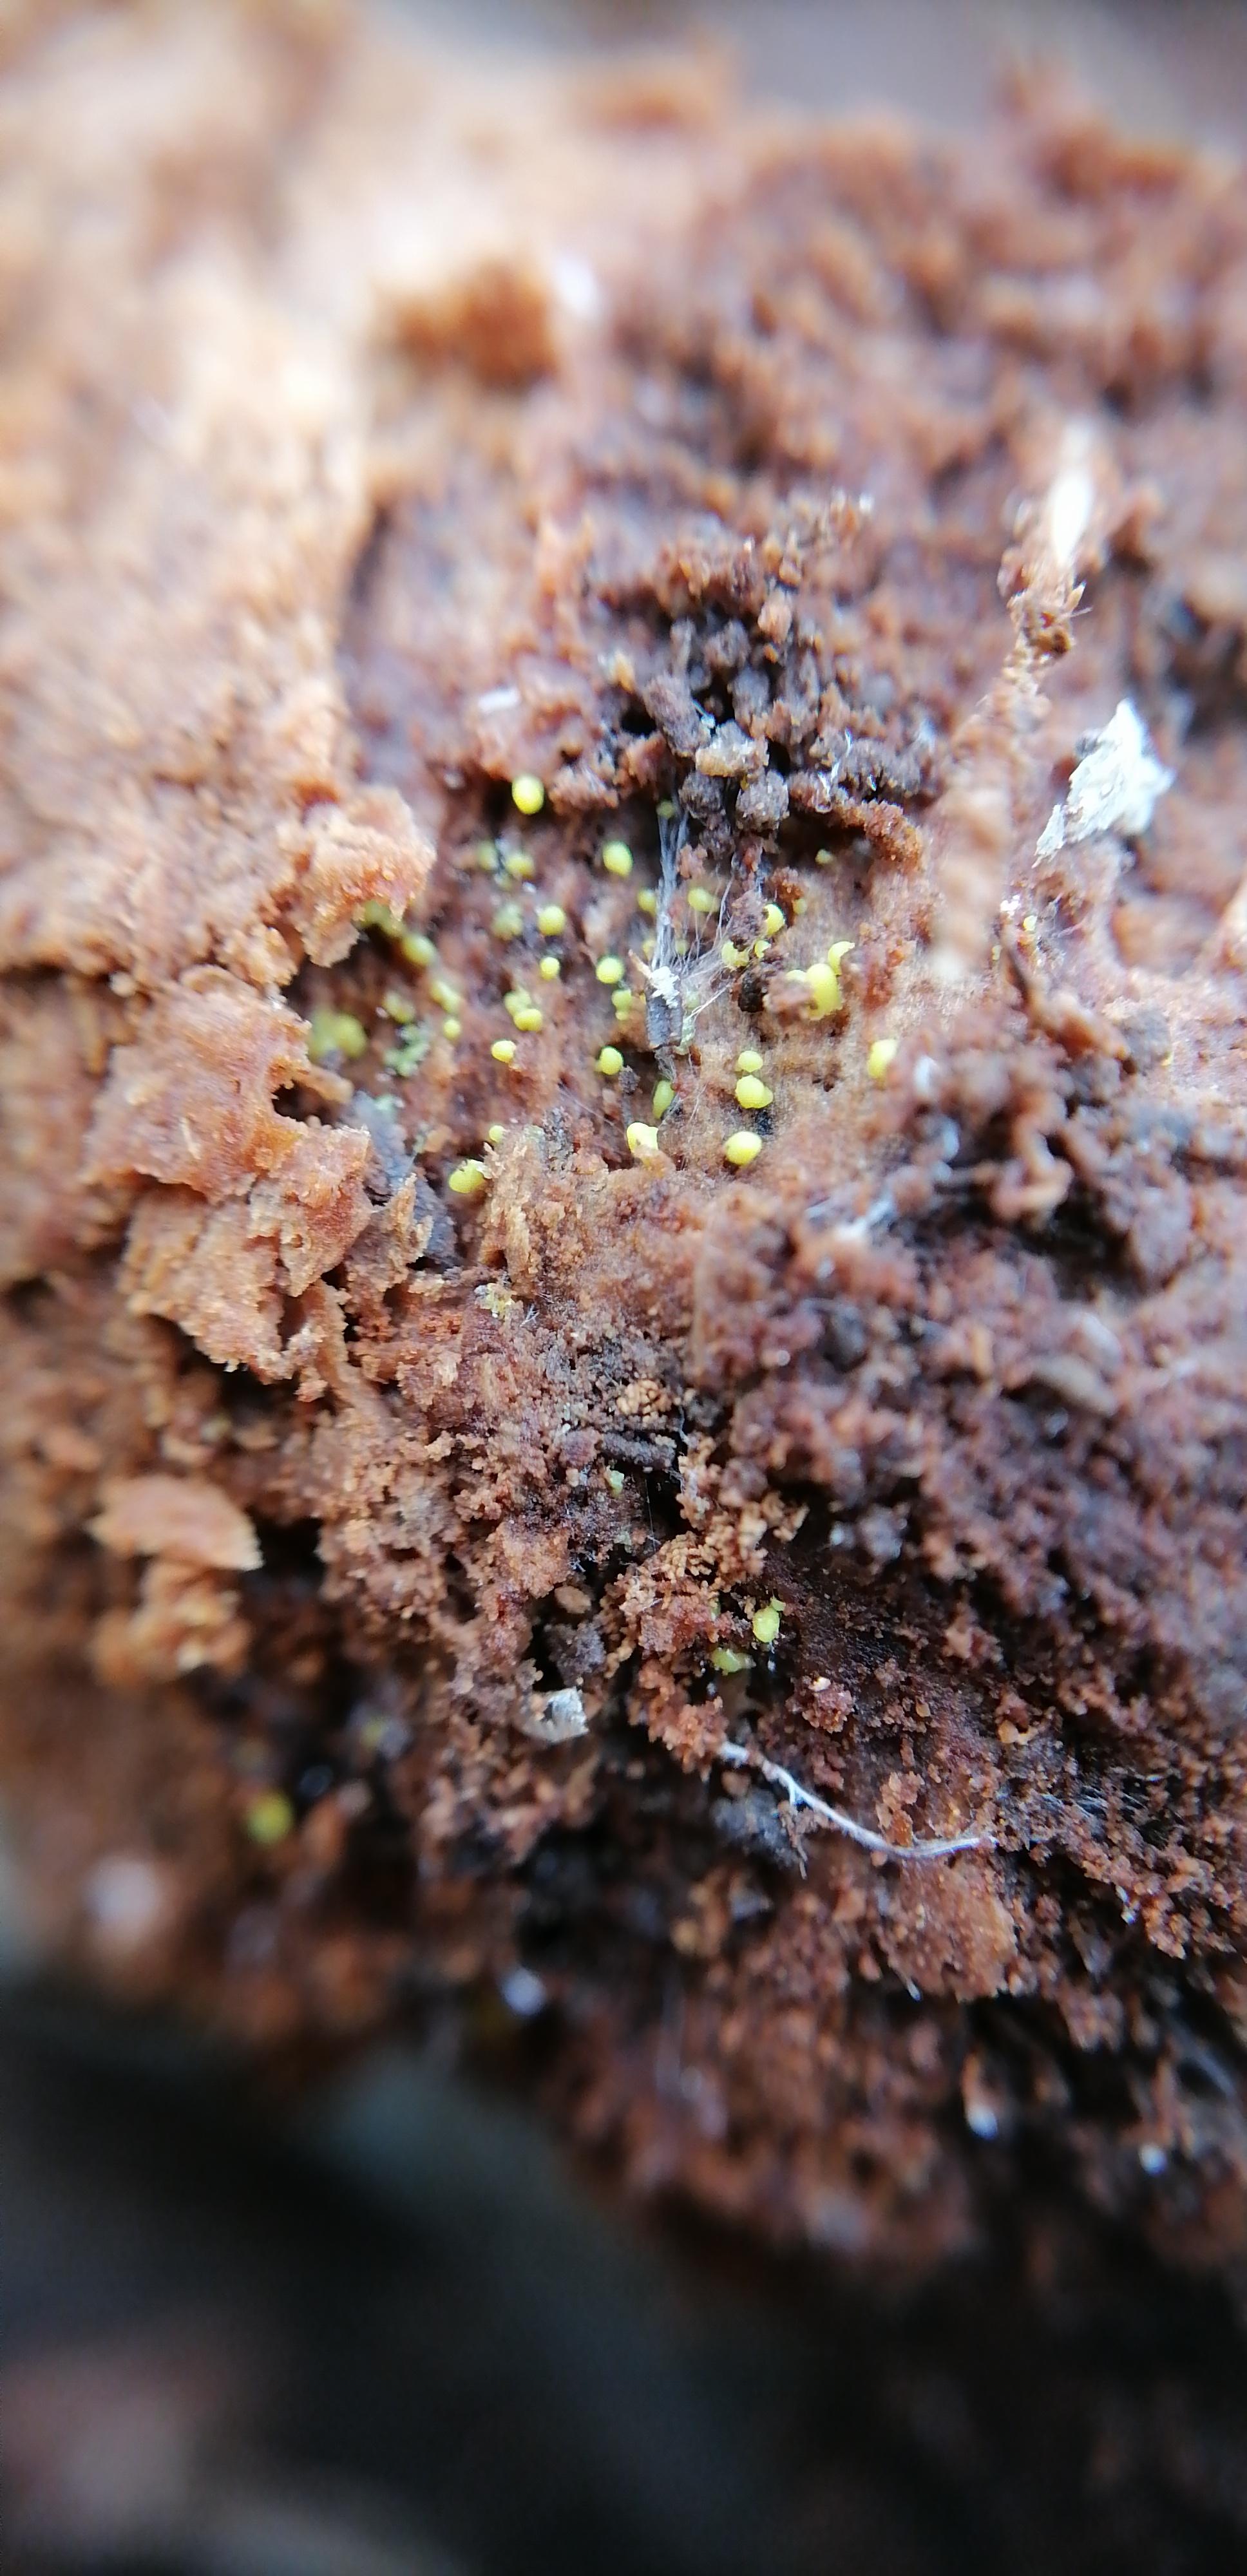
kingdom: Protozoa
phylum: Mycetozoa
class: Myxomycetes
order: Cribrariales
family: Cribrariaceae
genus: Cribraria
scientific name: Cribraria
